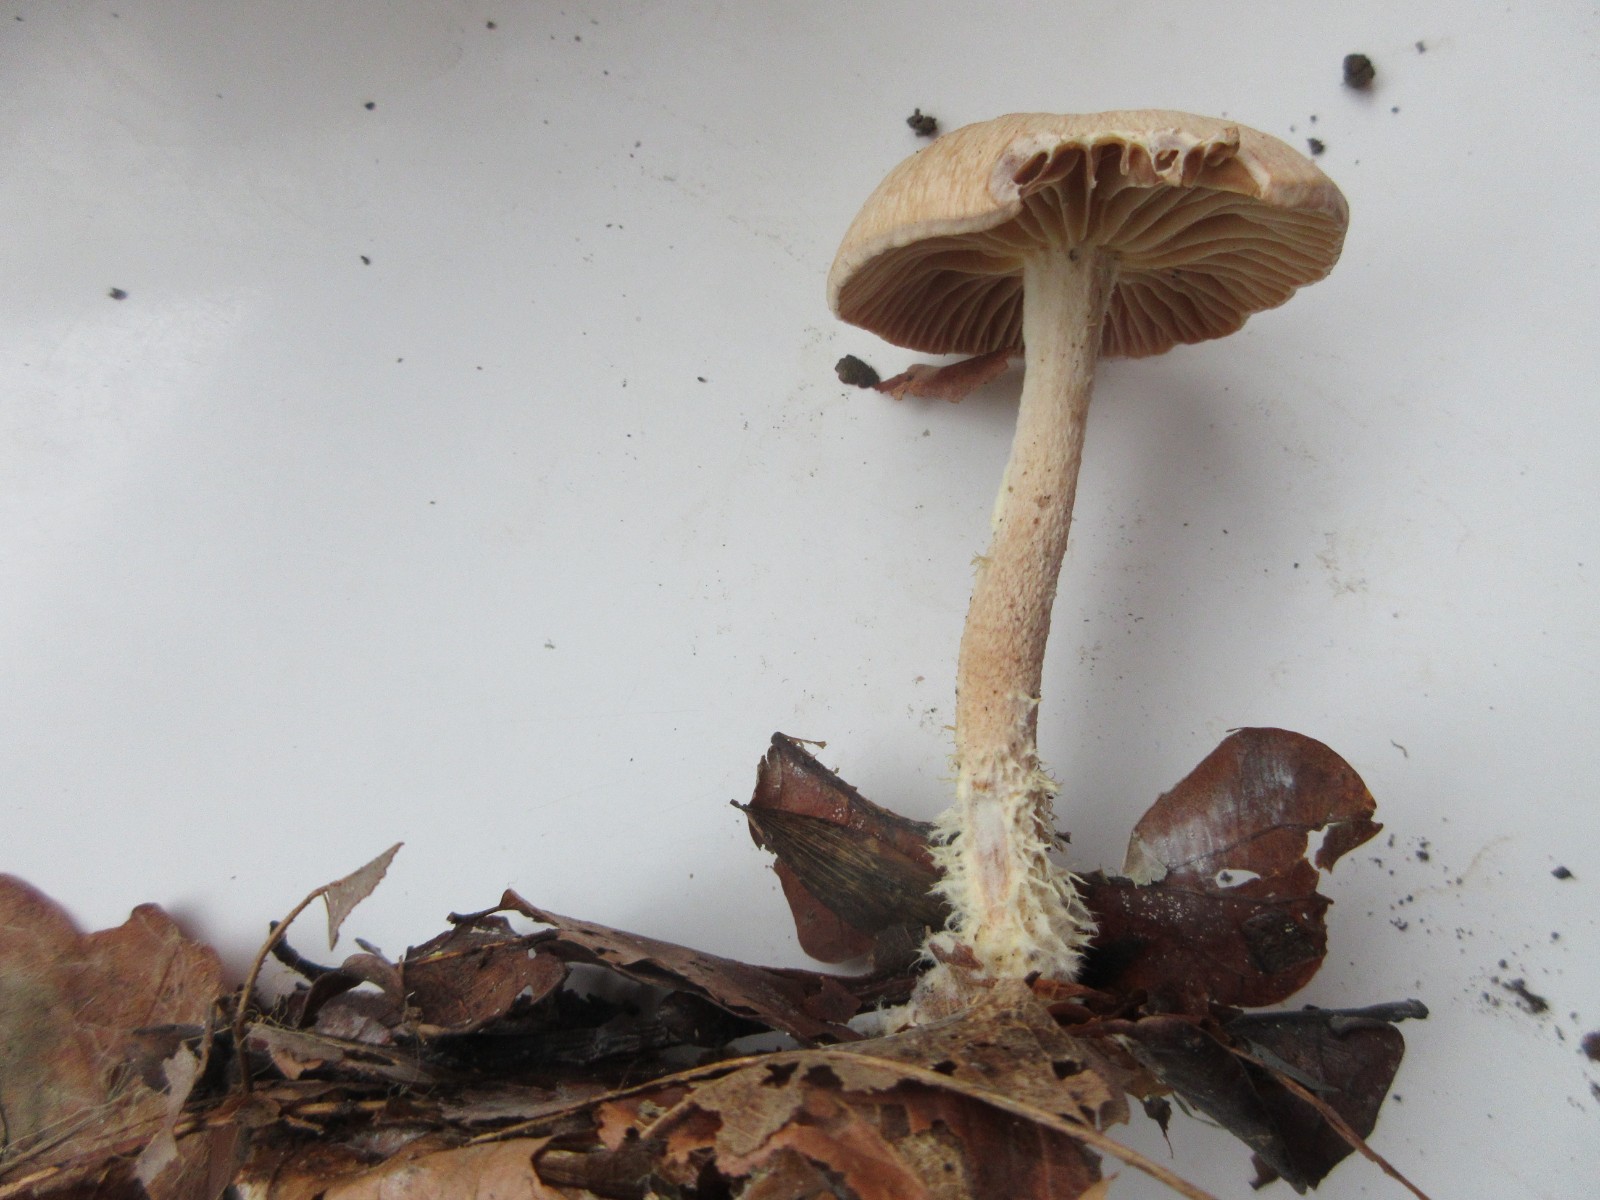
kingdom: Fungi
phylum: Basidiomycota
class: Agaricomycetes
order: Agaricales
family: Omphalotaceae
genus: Collybiopsis
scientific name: Collybiopsis peronata
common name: bestøvlet fladhat
